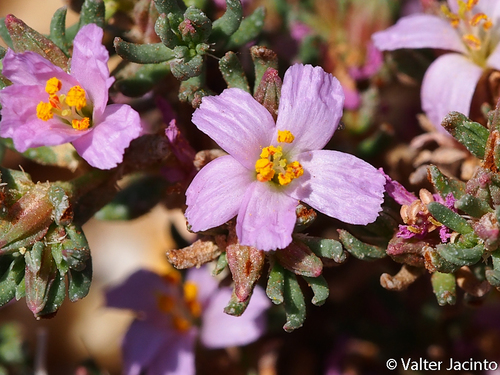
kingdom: Plantae
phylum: Tracheophyta
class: Magnoliopsida
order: Caryophyllales
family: Frankeniaceae
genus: Frankenia
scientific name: Frankenia laevis
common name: Sea-heath
